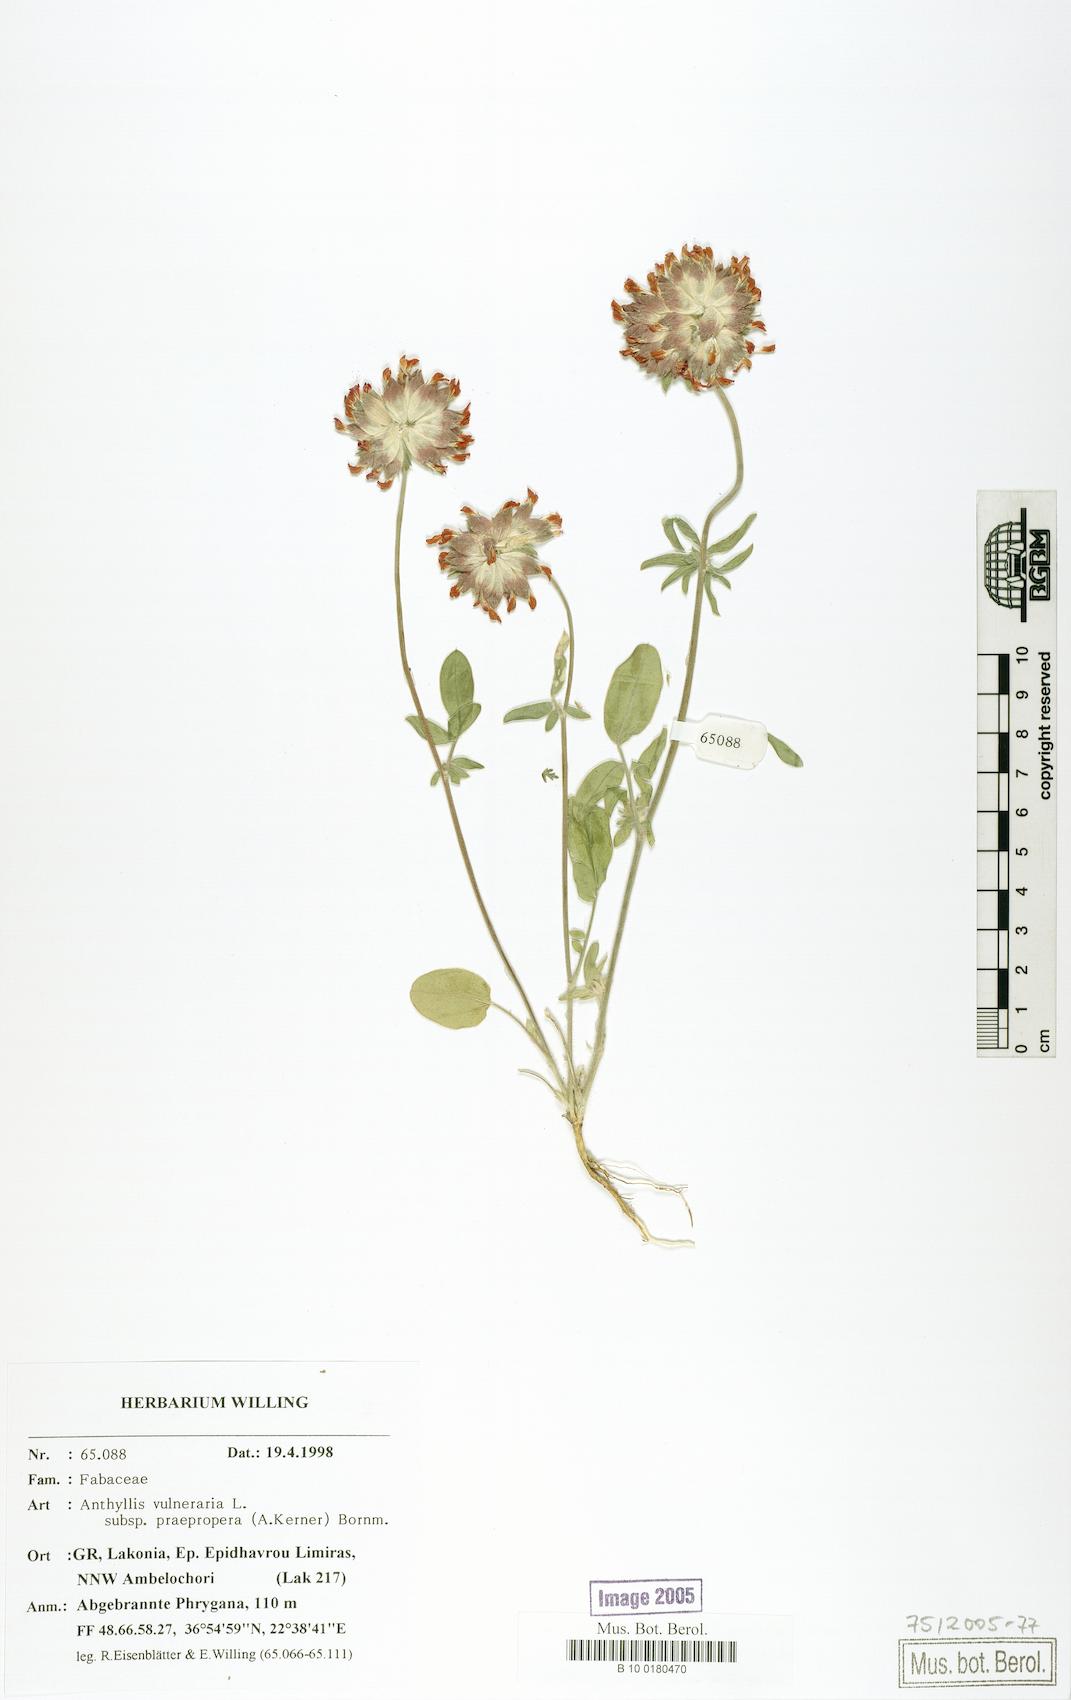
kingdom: Plantae
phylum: Tracheophyta
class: Magnoliopsida
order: Fabales
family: Fabaceae
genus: Anthyllis
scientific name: Anthyllis vulneraria
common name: Kidney vetch
